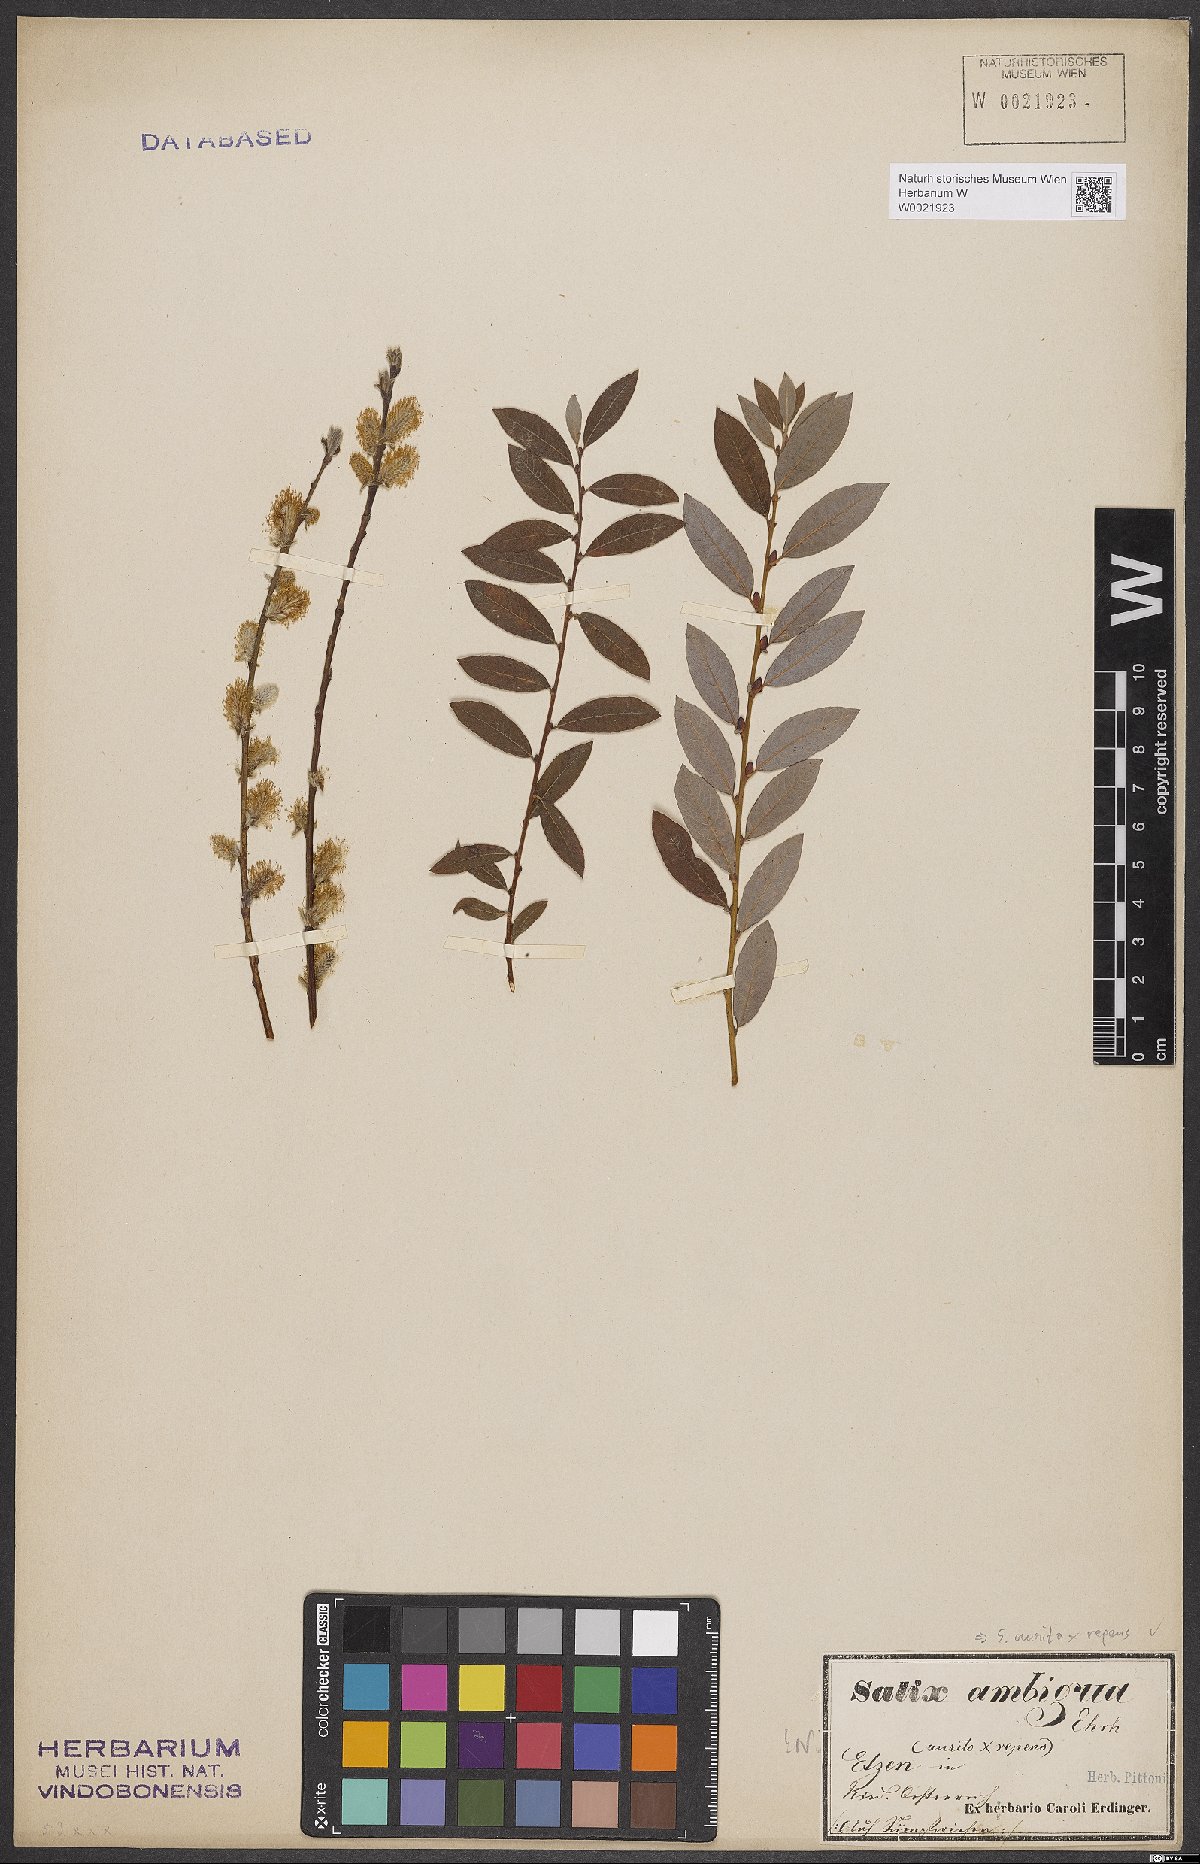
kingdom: Plantae
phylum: Tracheophyta
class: Magnoliopsida
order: Malpighiales
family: Salicaceae
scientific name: Salicaceae
